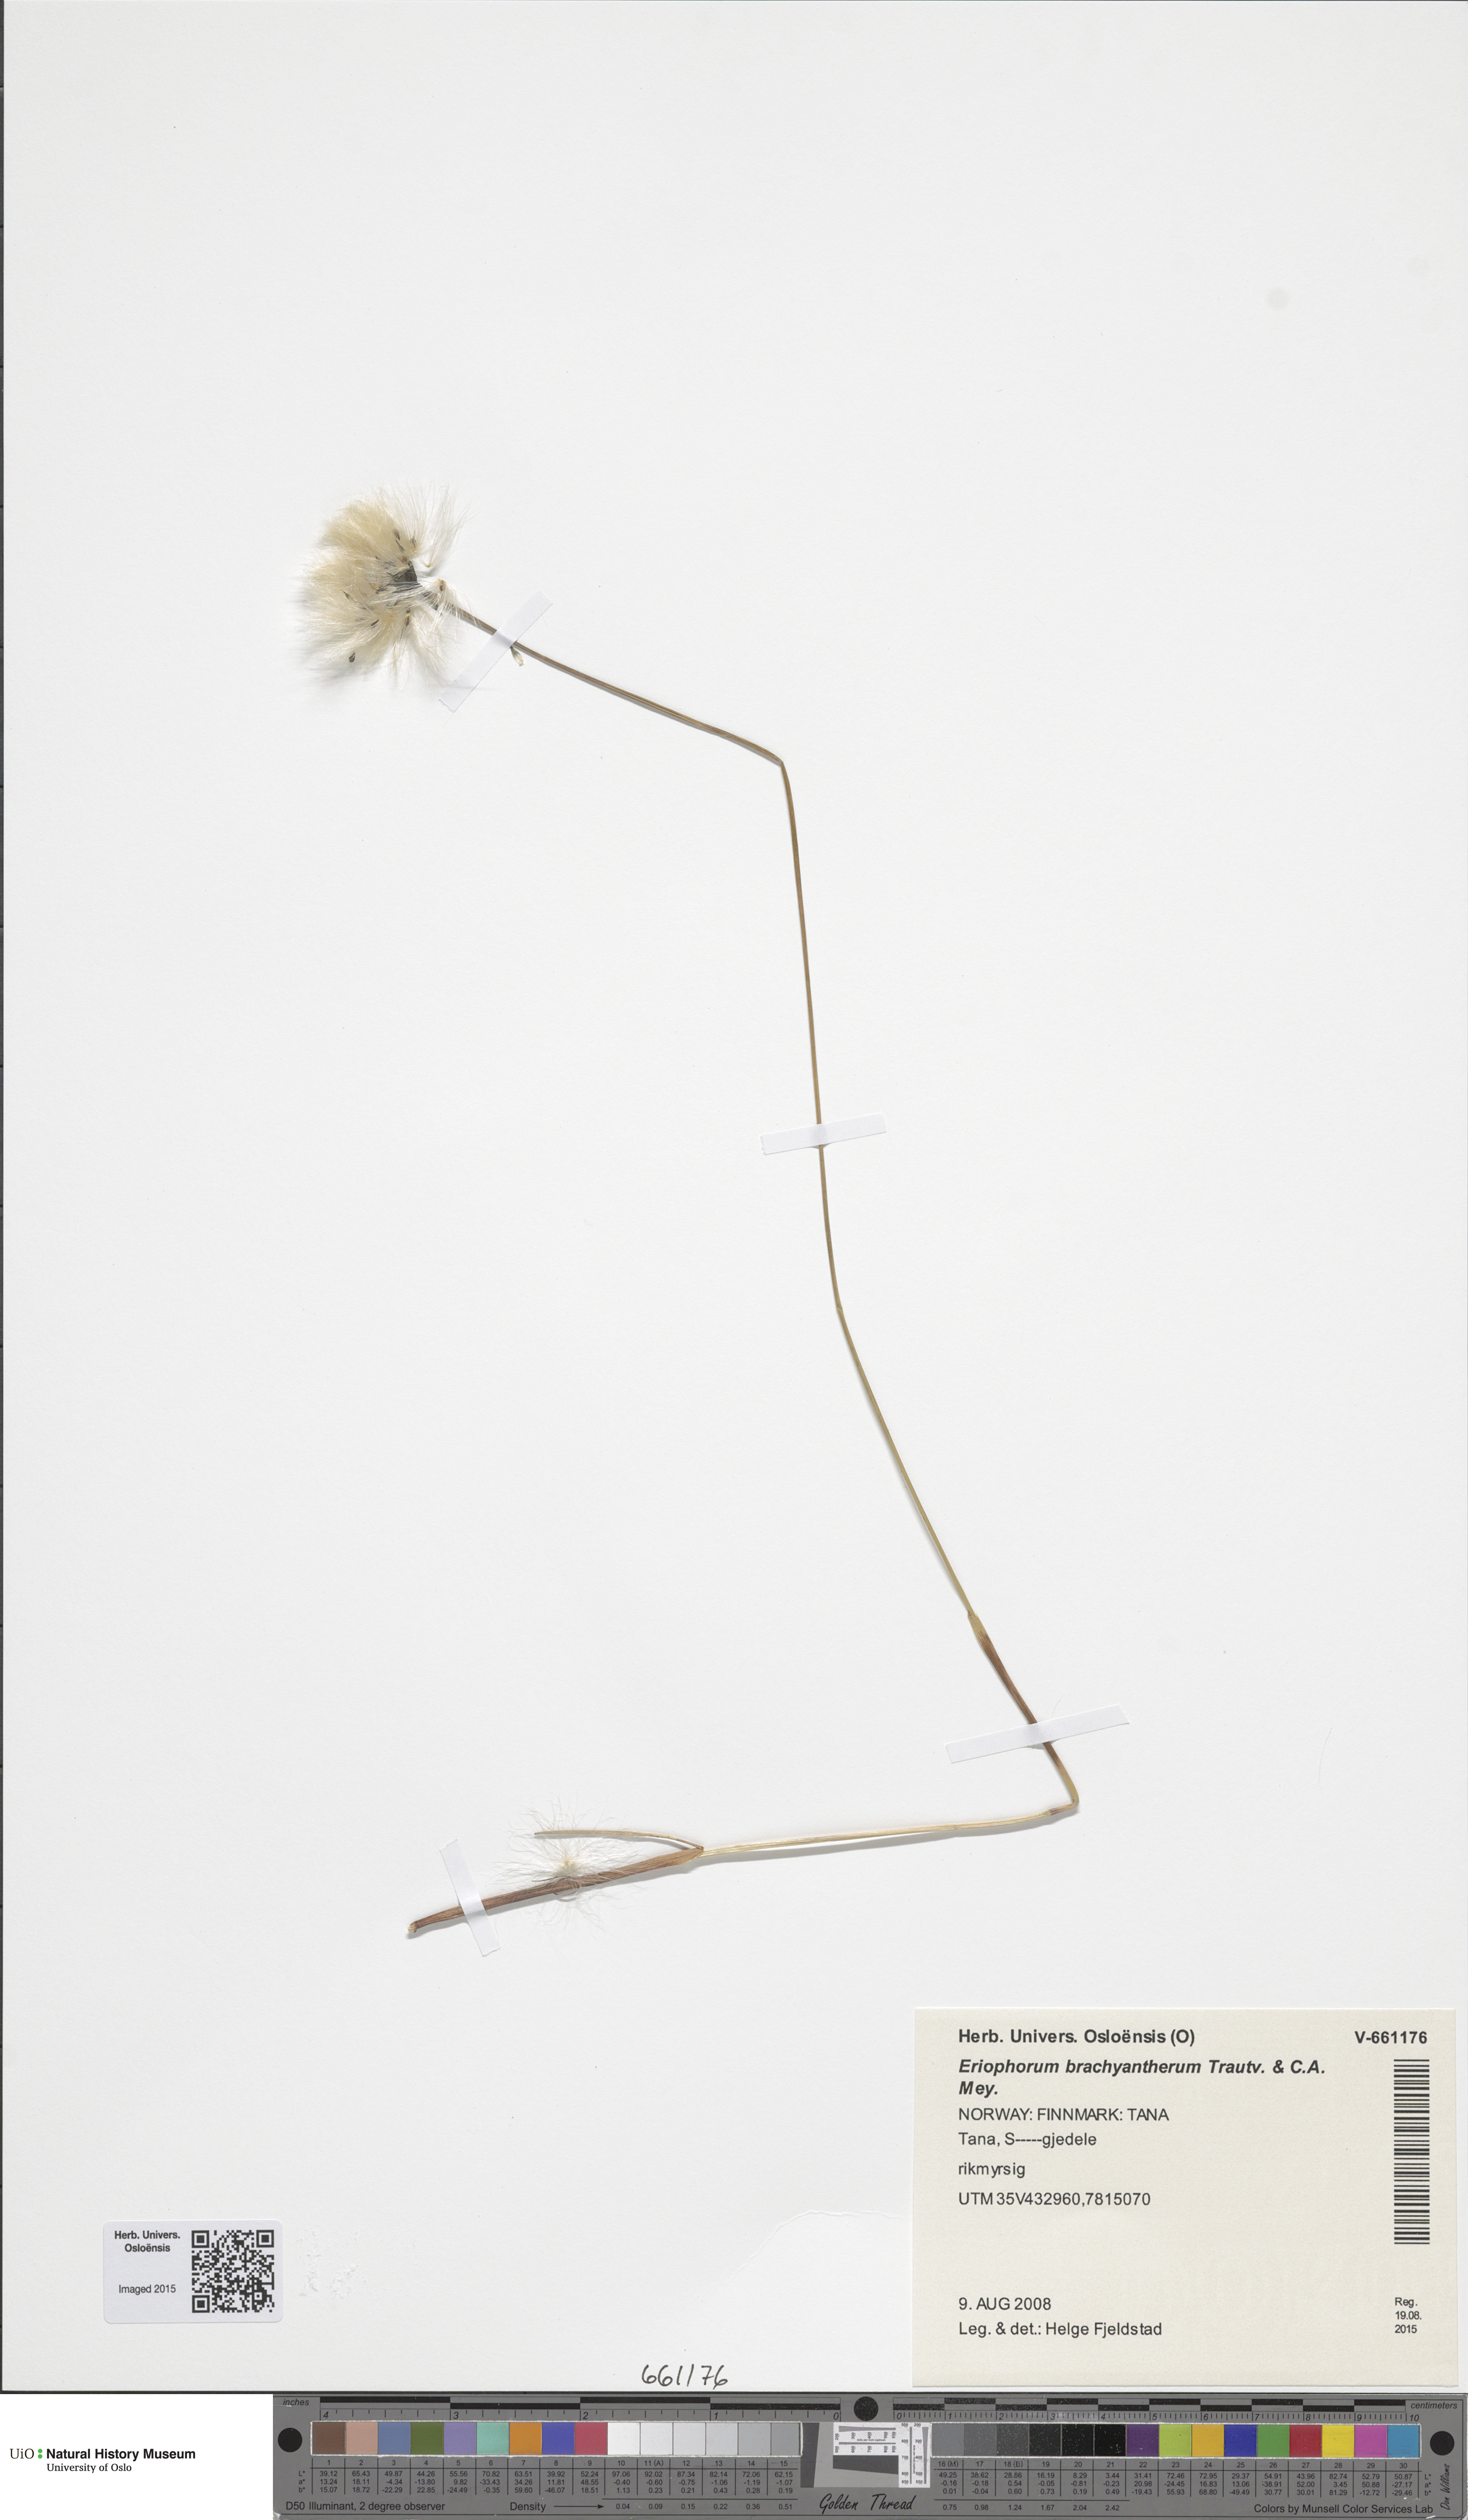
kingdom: Plantae
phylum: Tracheophyta
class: Liliopsida
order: Poales
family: Cyperaceae
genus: Eriophorum
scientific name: Eriophorum brachyantherum
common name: Closed-sheathed cottongrass
